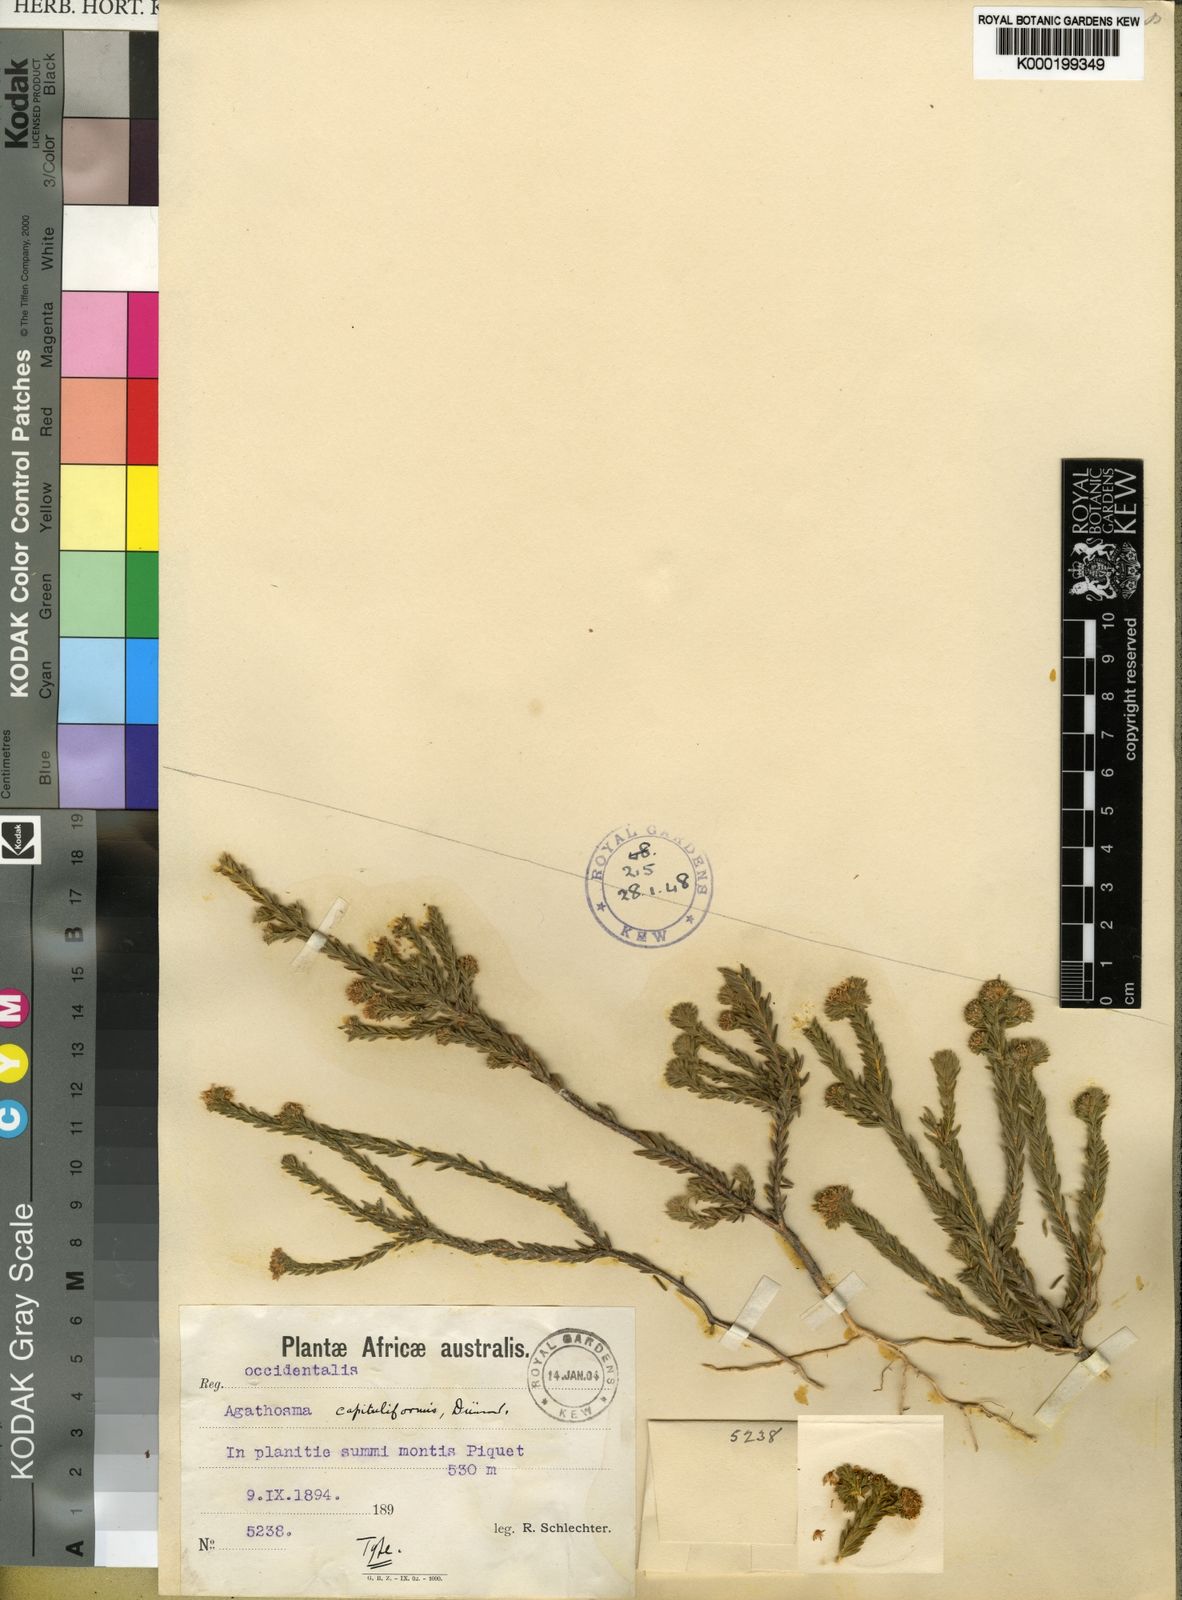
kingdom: Plantae
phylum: Tracheophyta
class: Magnoliopsida
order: Sapindales
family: Rutaceae
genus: Agathosma
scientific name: Agathosma capitata
